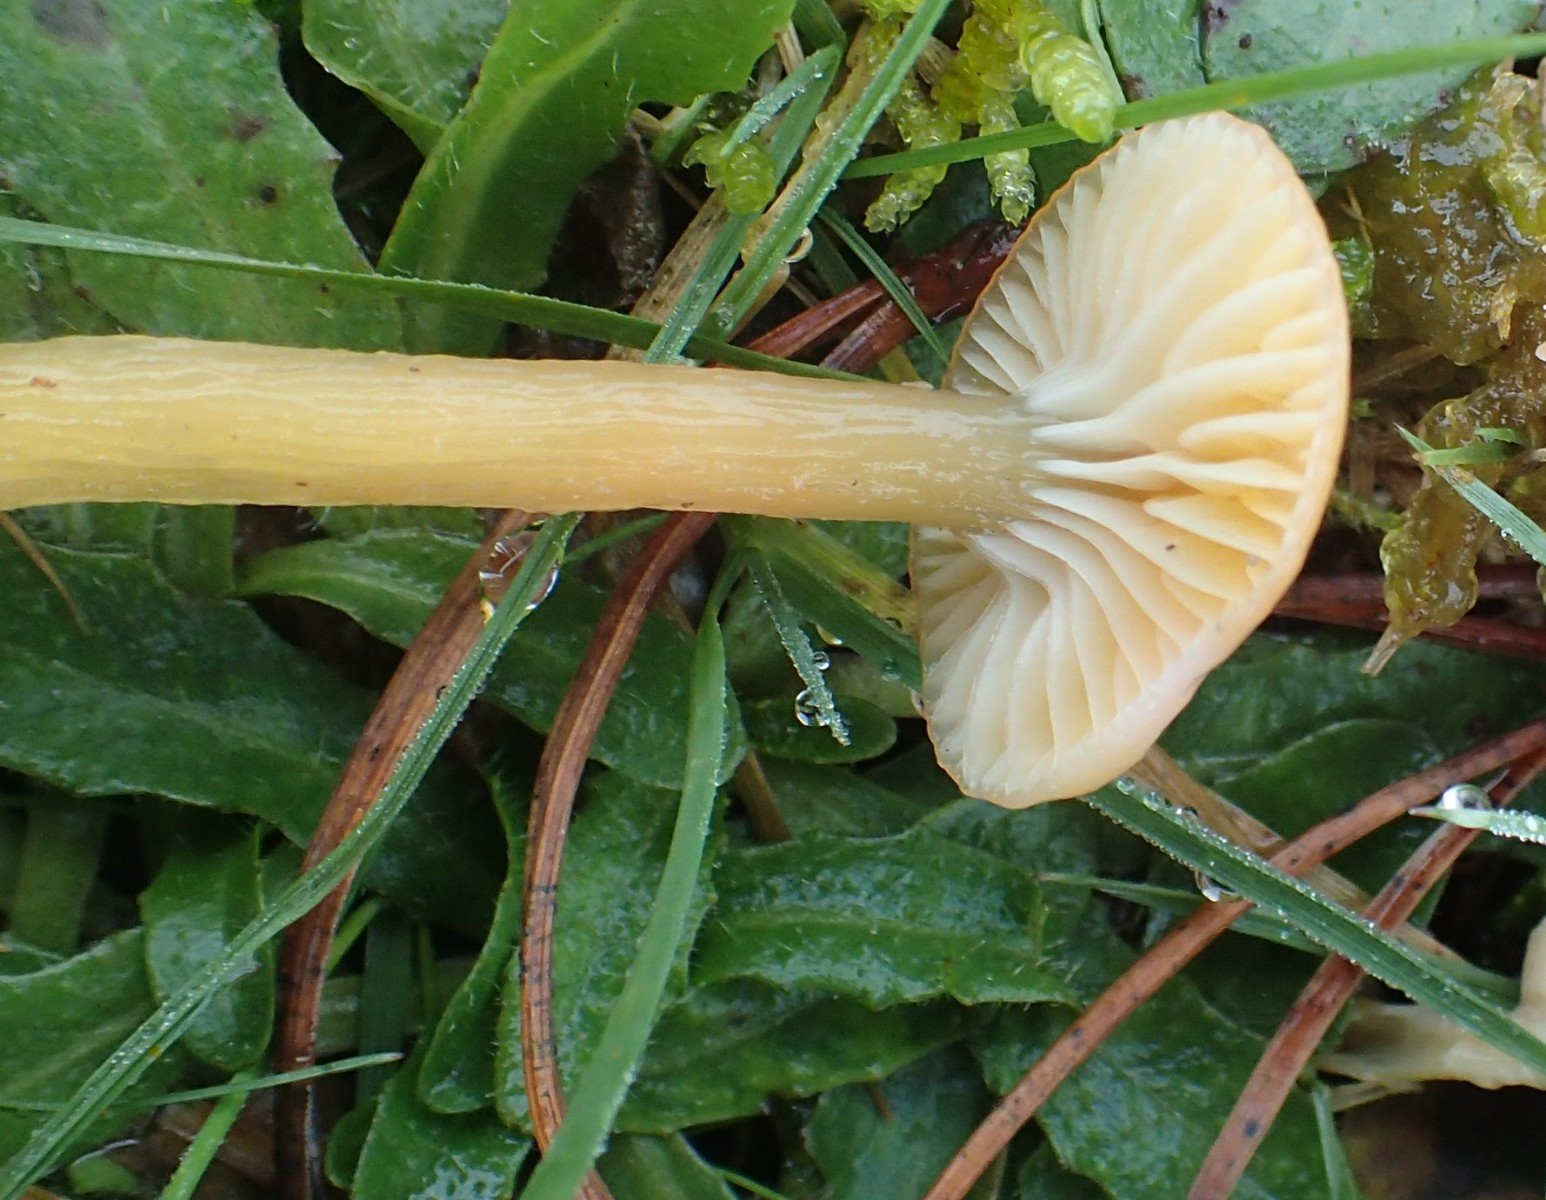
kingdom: Fungi
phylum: Basidiomycota
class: Agaricomycetes
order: Agaricales
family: Hygrophoraceae
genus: Gliophorus
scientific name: Gliophorus laetus
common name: brusk-vokshat
